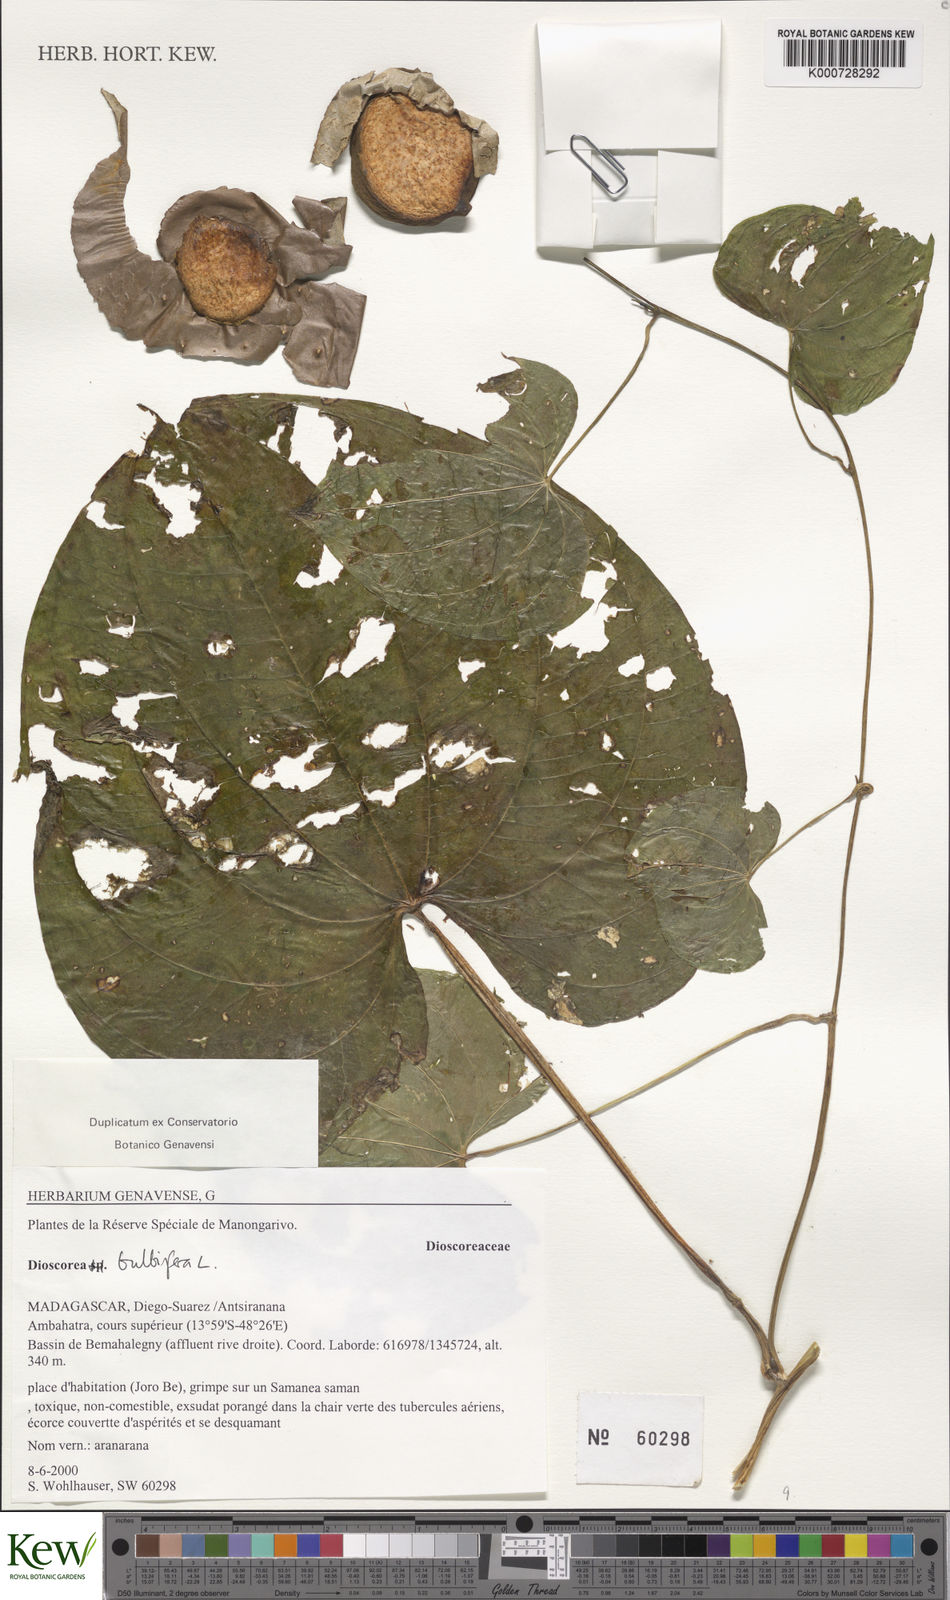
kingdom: Plantae
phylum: Tracheophyta
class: Liliopsida
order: Dioscoreales
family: Dioscoreaceae
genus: Dioscorea
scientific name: Dioscorea bulbifera
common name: Air yam
